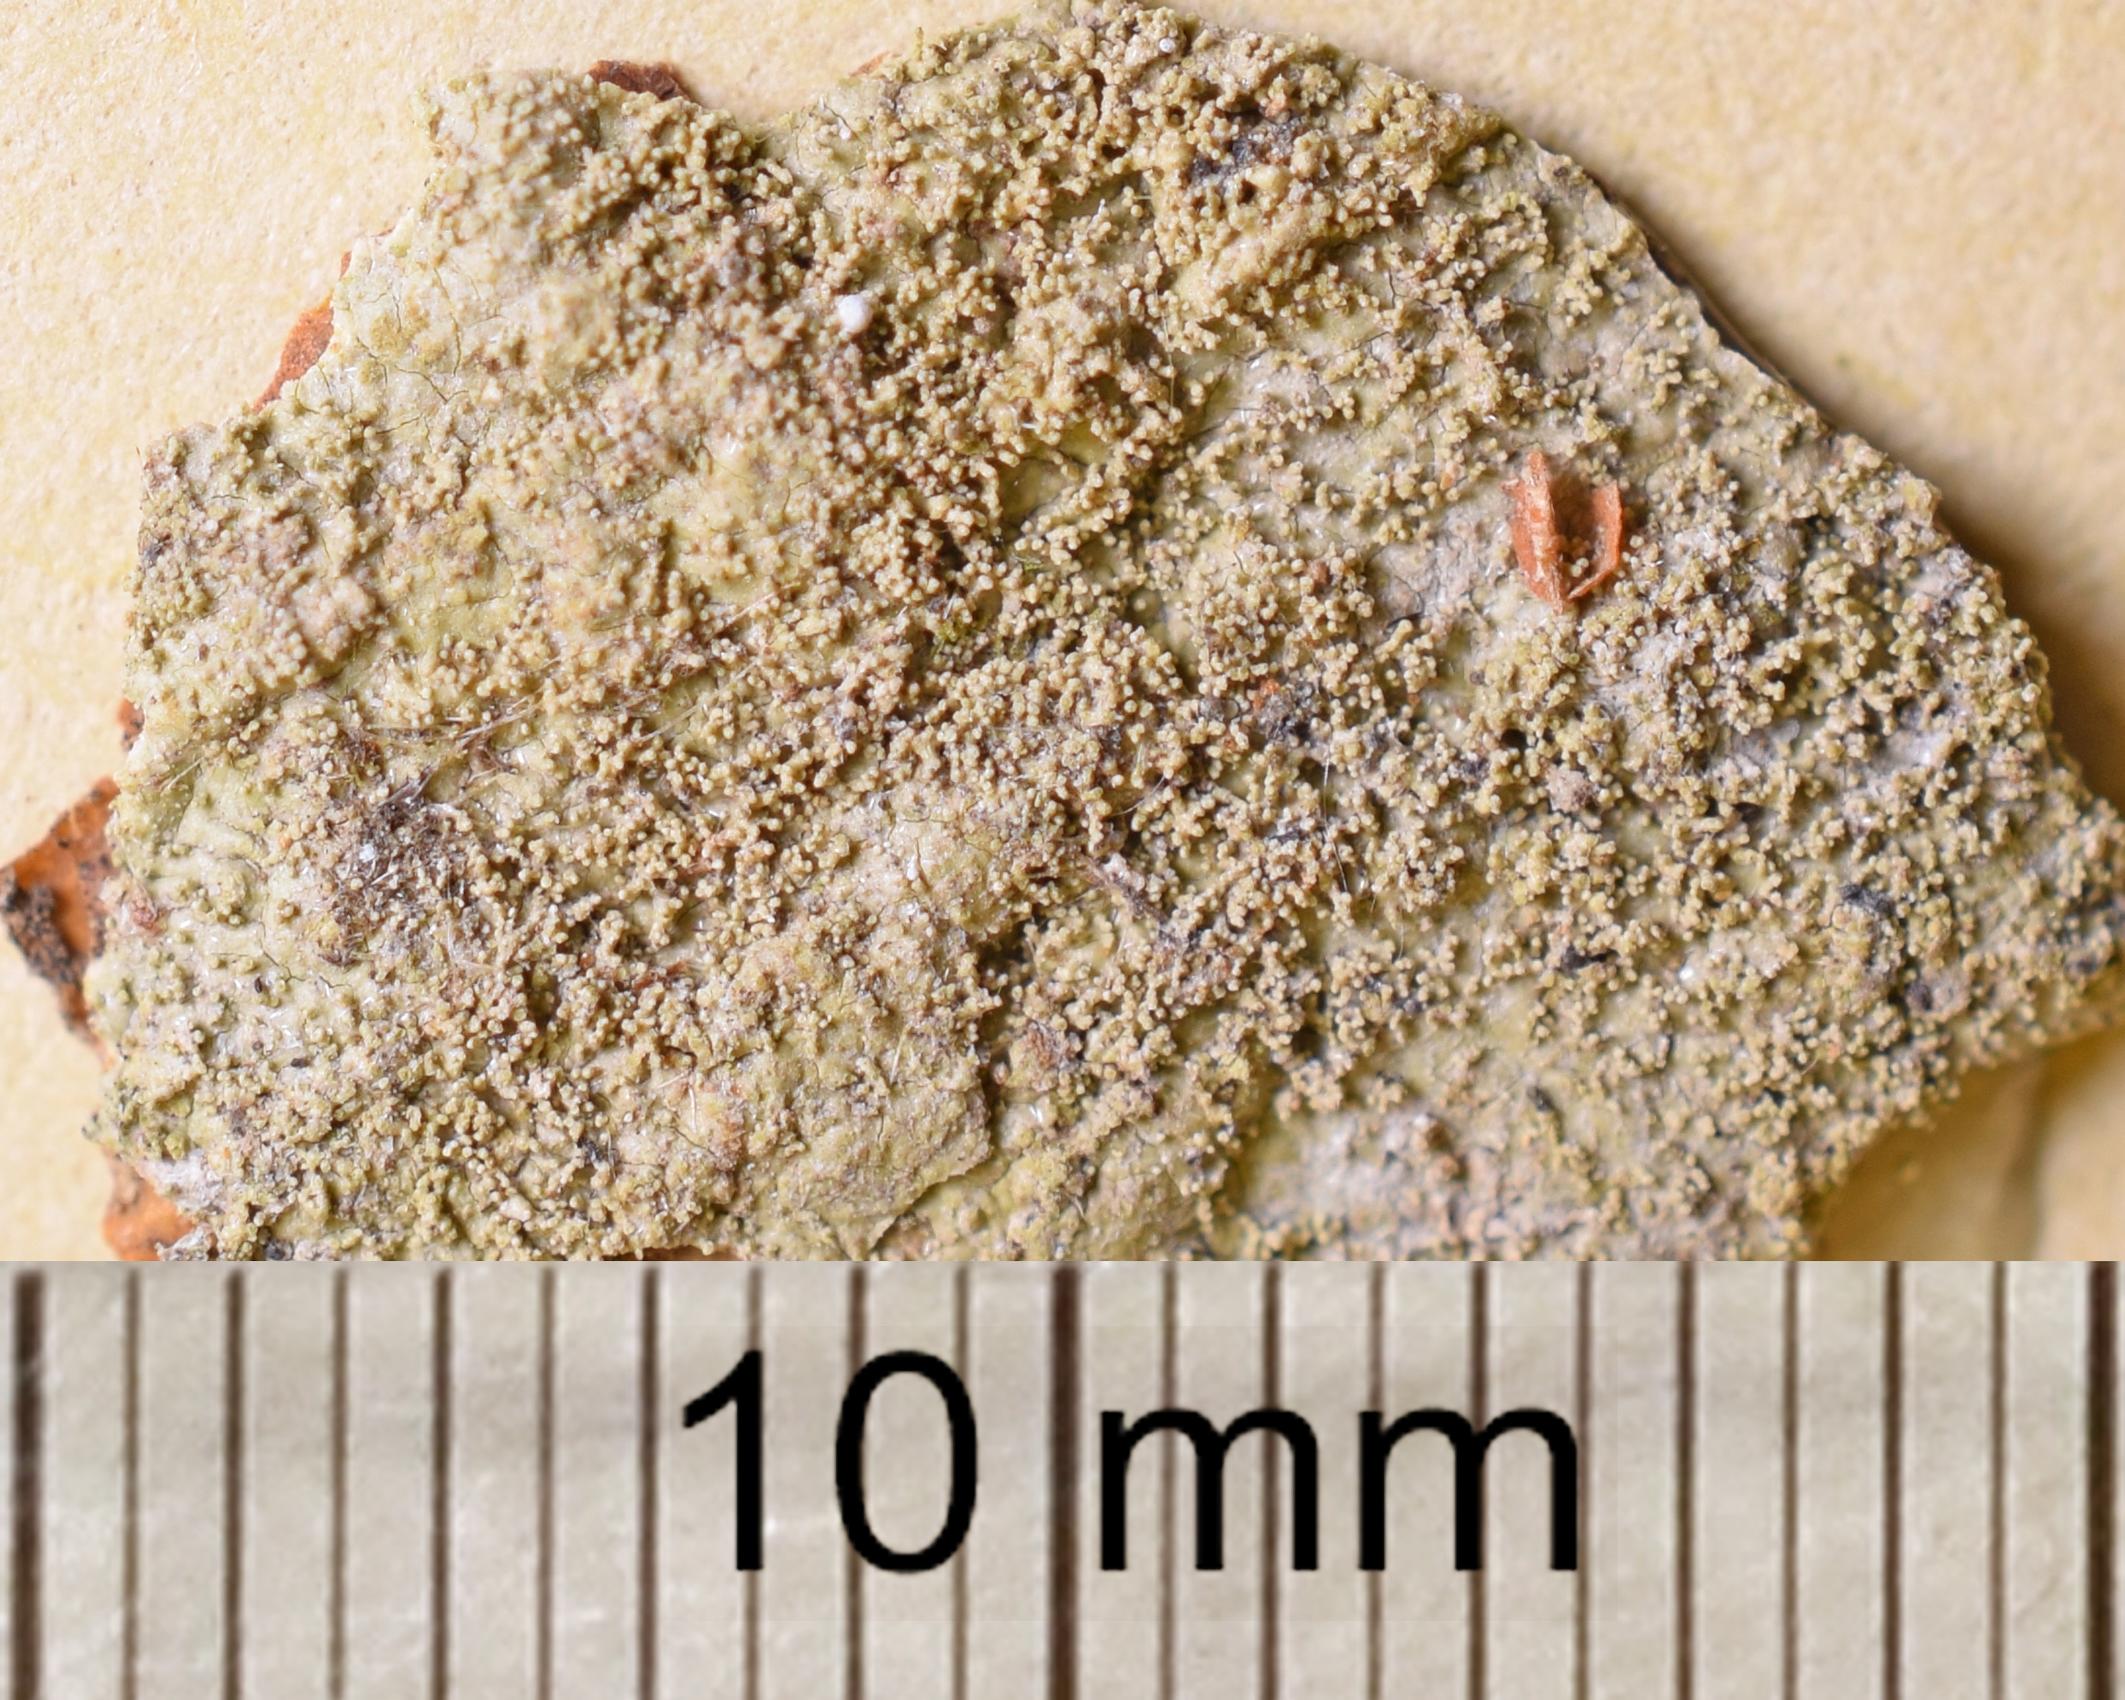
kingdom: Fungi
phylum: Ascomycota
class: Lecanoromycetes
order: Ostropales
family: Porinaceae
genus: Porina
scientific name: Porina
